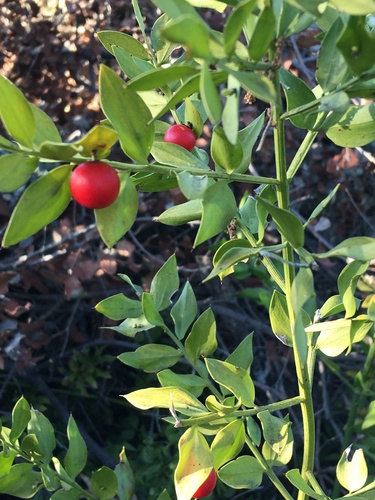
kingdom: Plantae
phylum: Tracheophyta
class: Liliopsida
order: Asparagales
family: Asparagaceae
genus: Ruscus
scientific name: Ruscus aculeatus
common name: Butcher's-broom
